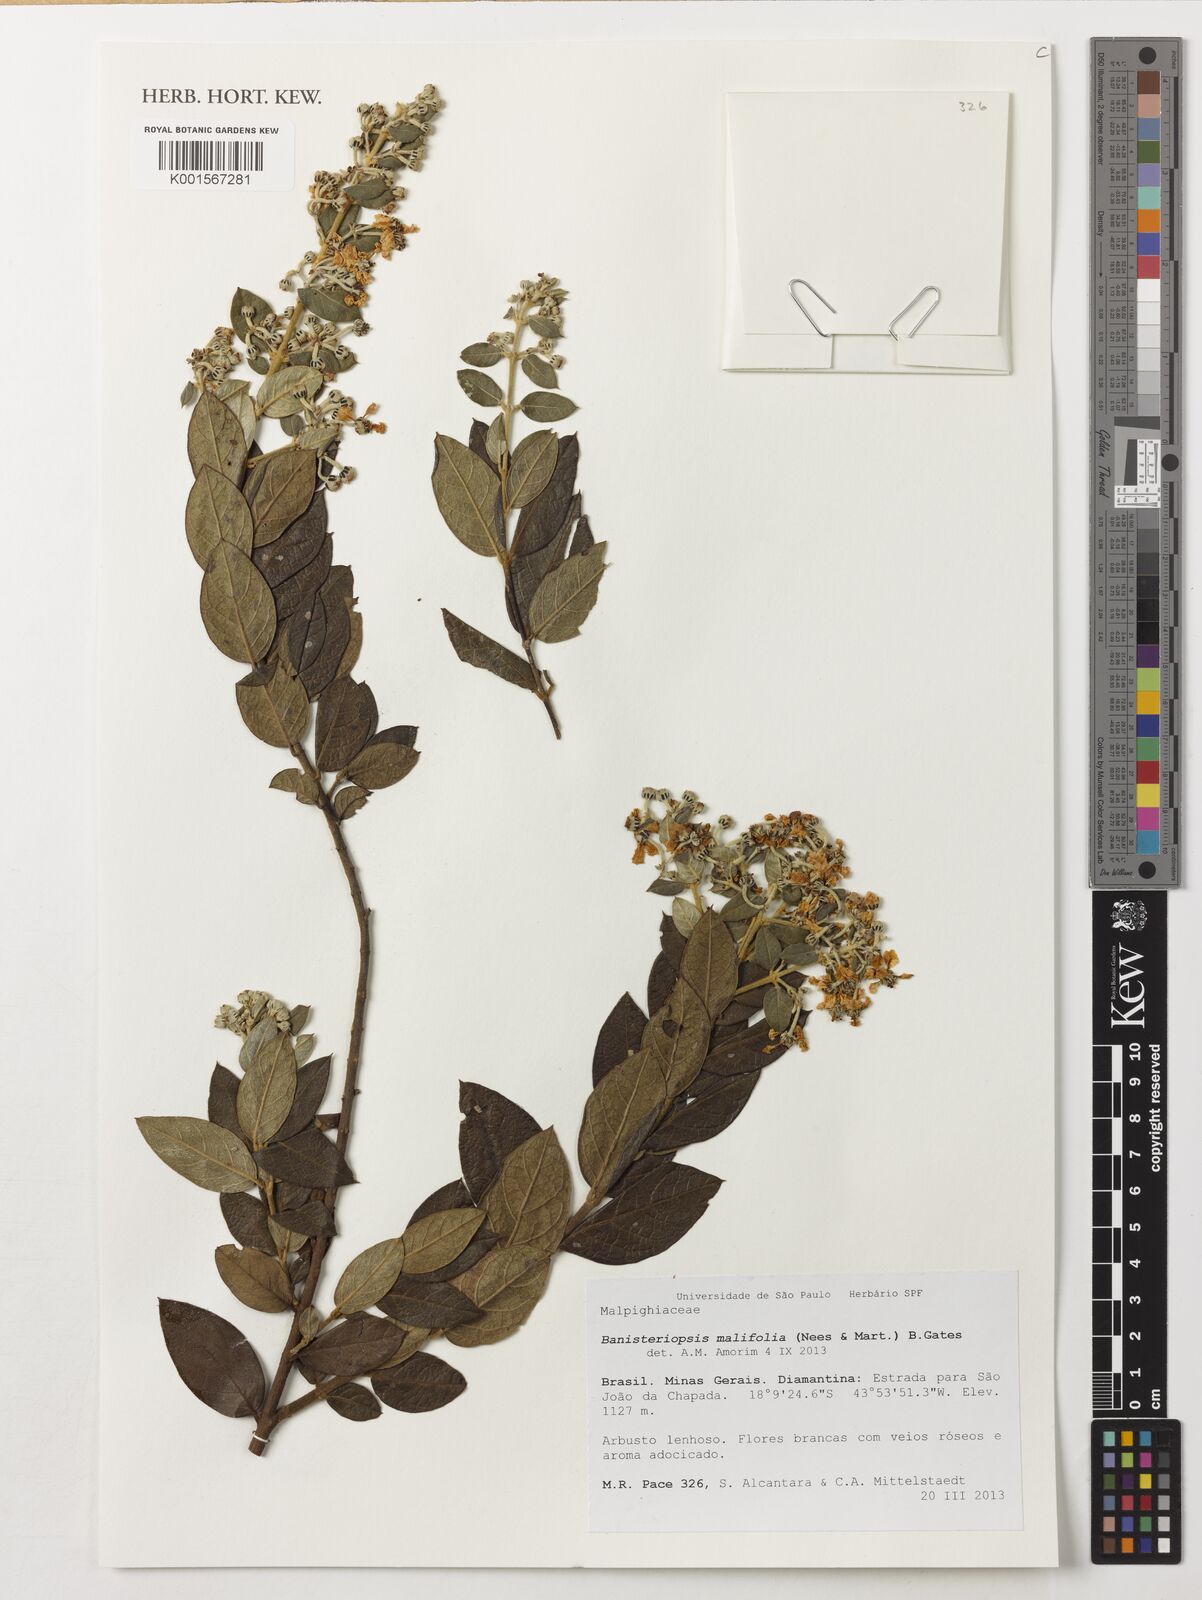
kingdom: Plantae
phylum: Tracheophyta
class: Magnoliopsida
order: Malpighiales
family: Malpighiaceae
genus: Banisteriopsis
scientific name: Banisteriopsis malifolia
